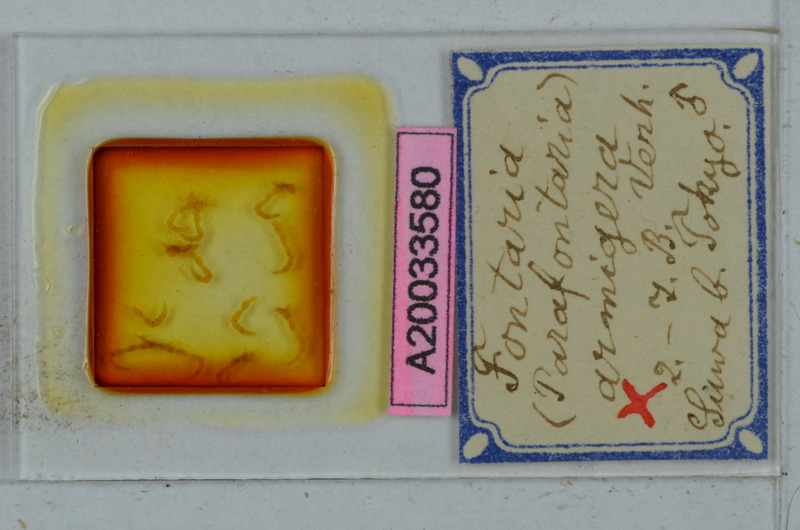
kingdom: Animalia
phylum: Arthropoda
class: Diplopoda
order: Polydesmida
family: Xystodesmidae
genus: Parafontaria
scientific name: Parafontaria laminata
